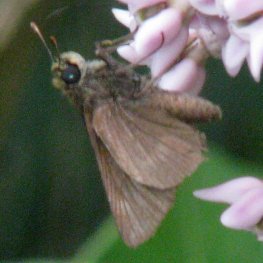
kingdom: Animalia
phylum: Arthropoda
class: Insecta
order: Lepidoptera
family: Hesperiidae
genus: Euphyes
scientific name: Euphyes vestris
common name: Dun Skipper
